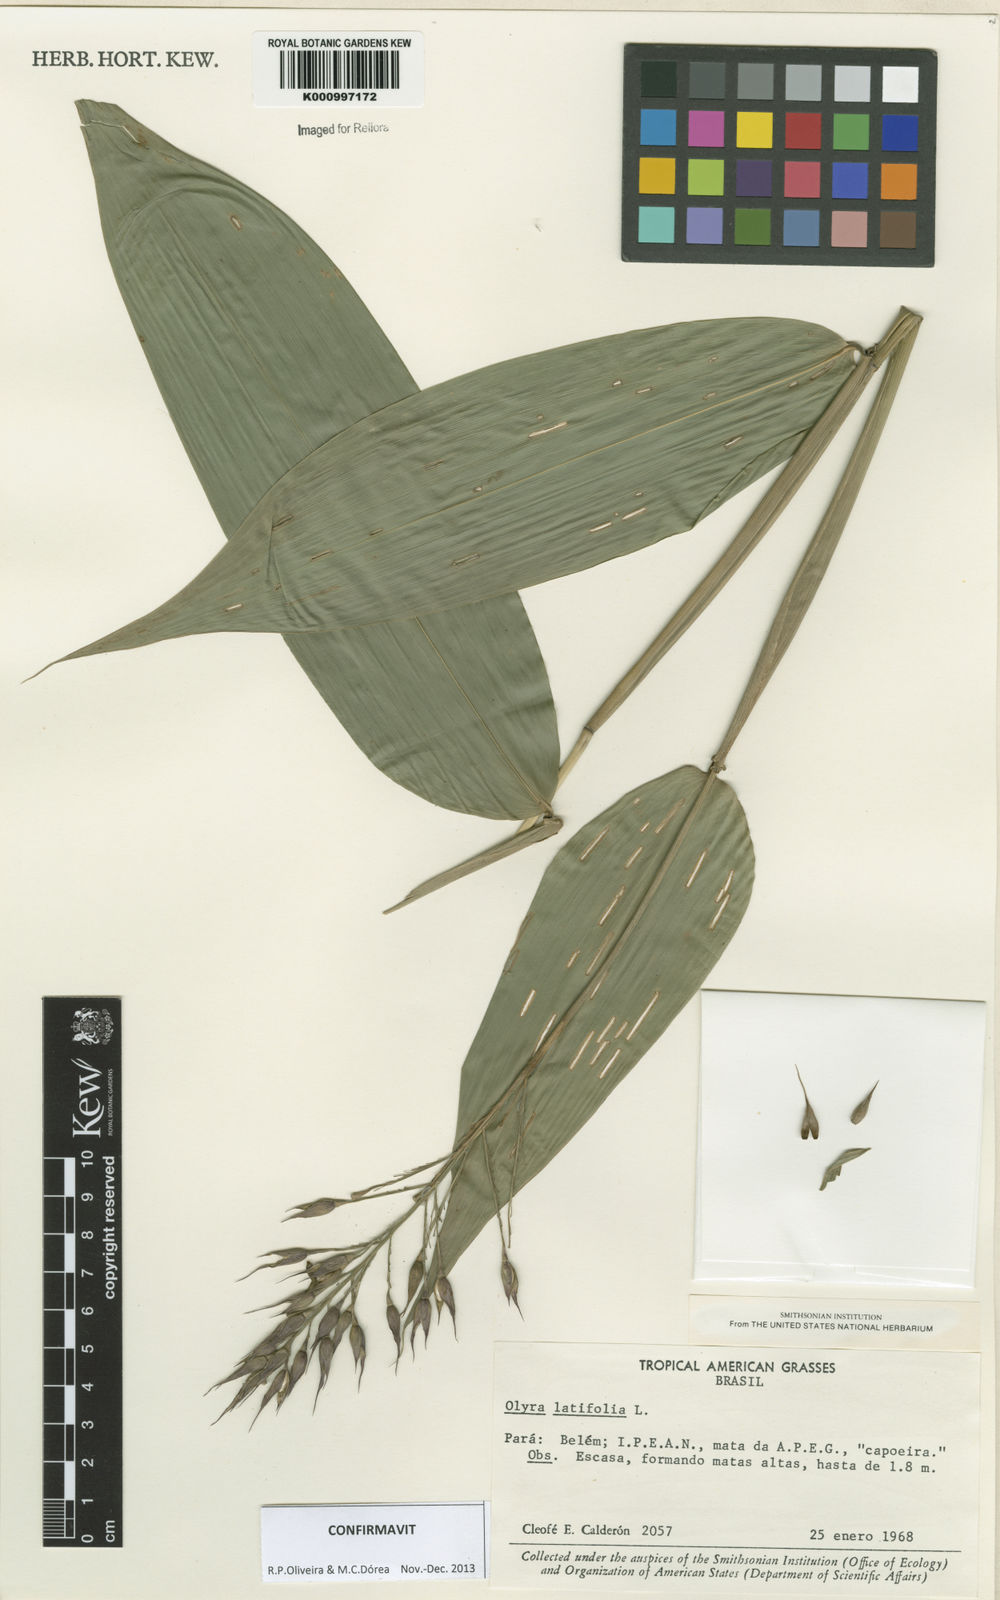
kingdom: Plantae
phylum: Tracheophyta
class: Liliopsida
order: Poales
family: Poaceae
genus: Olyra
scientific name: Olyra latifolia
